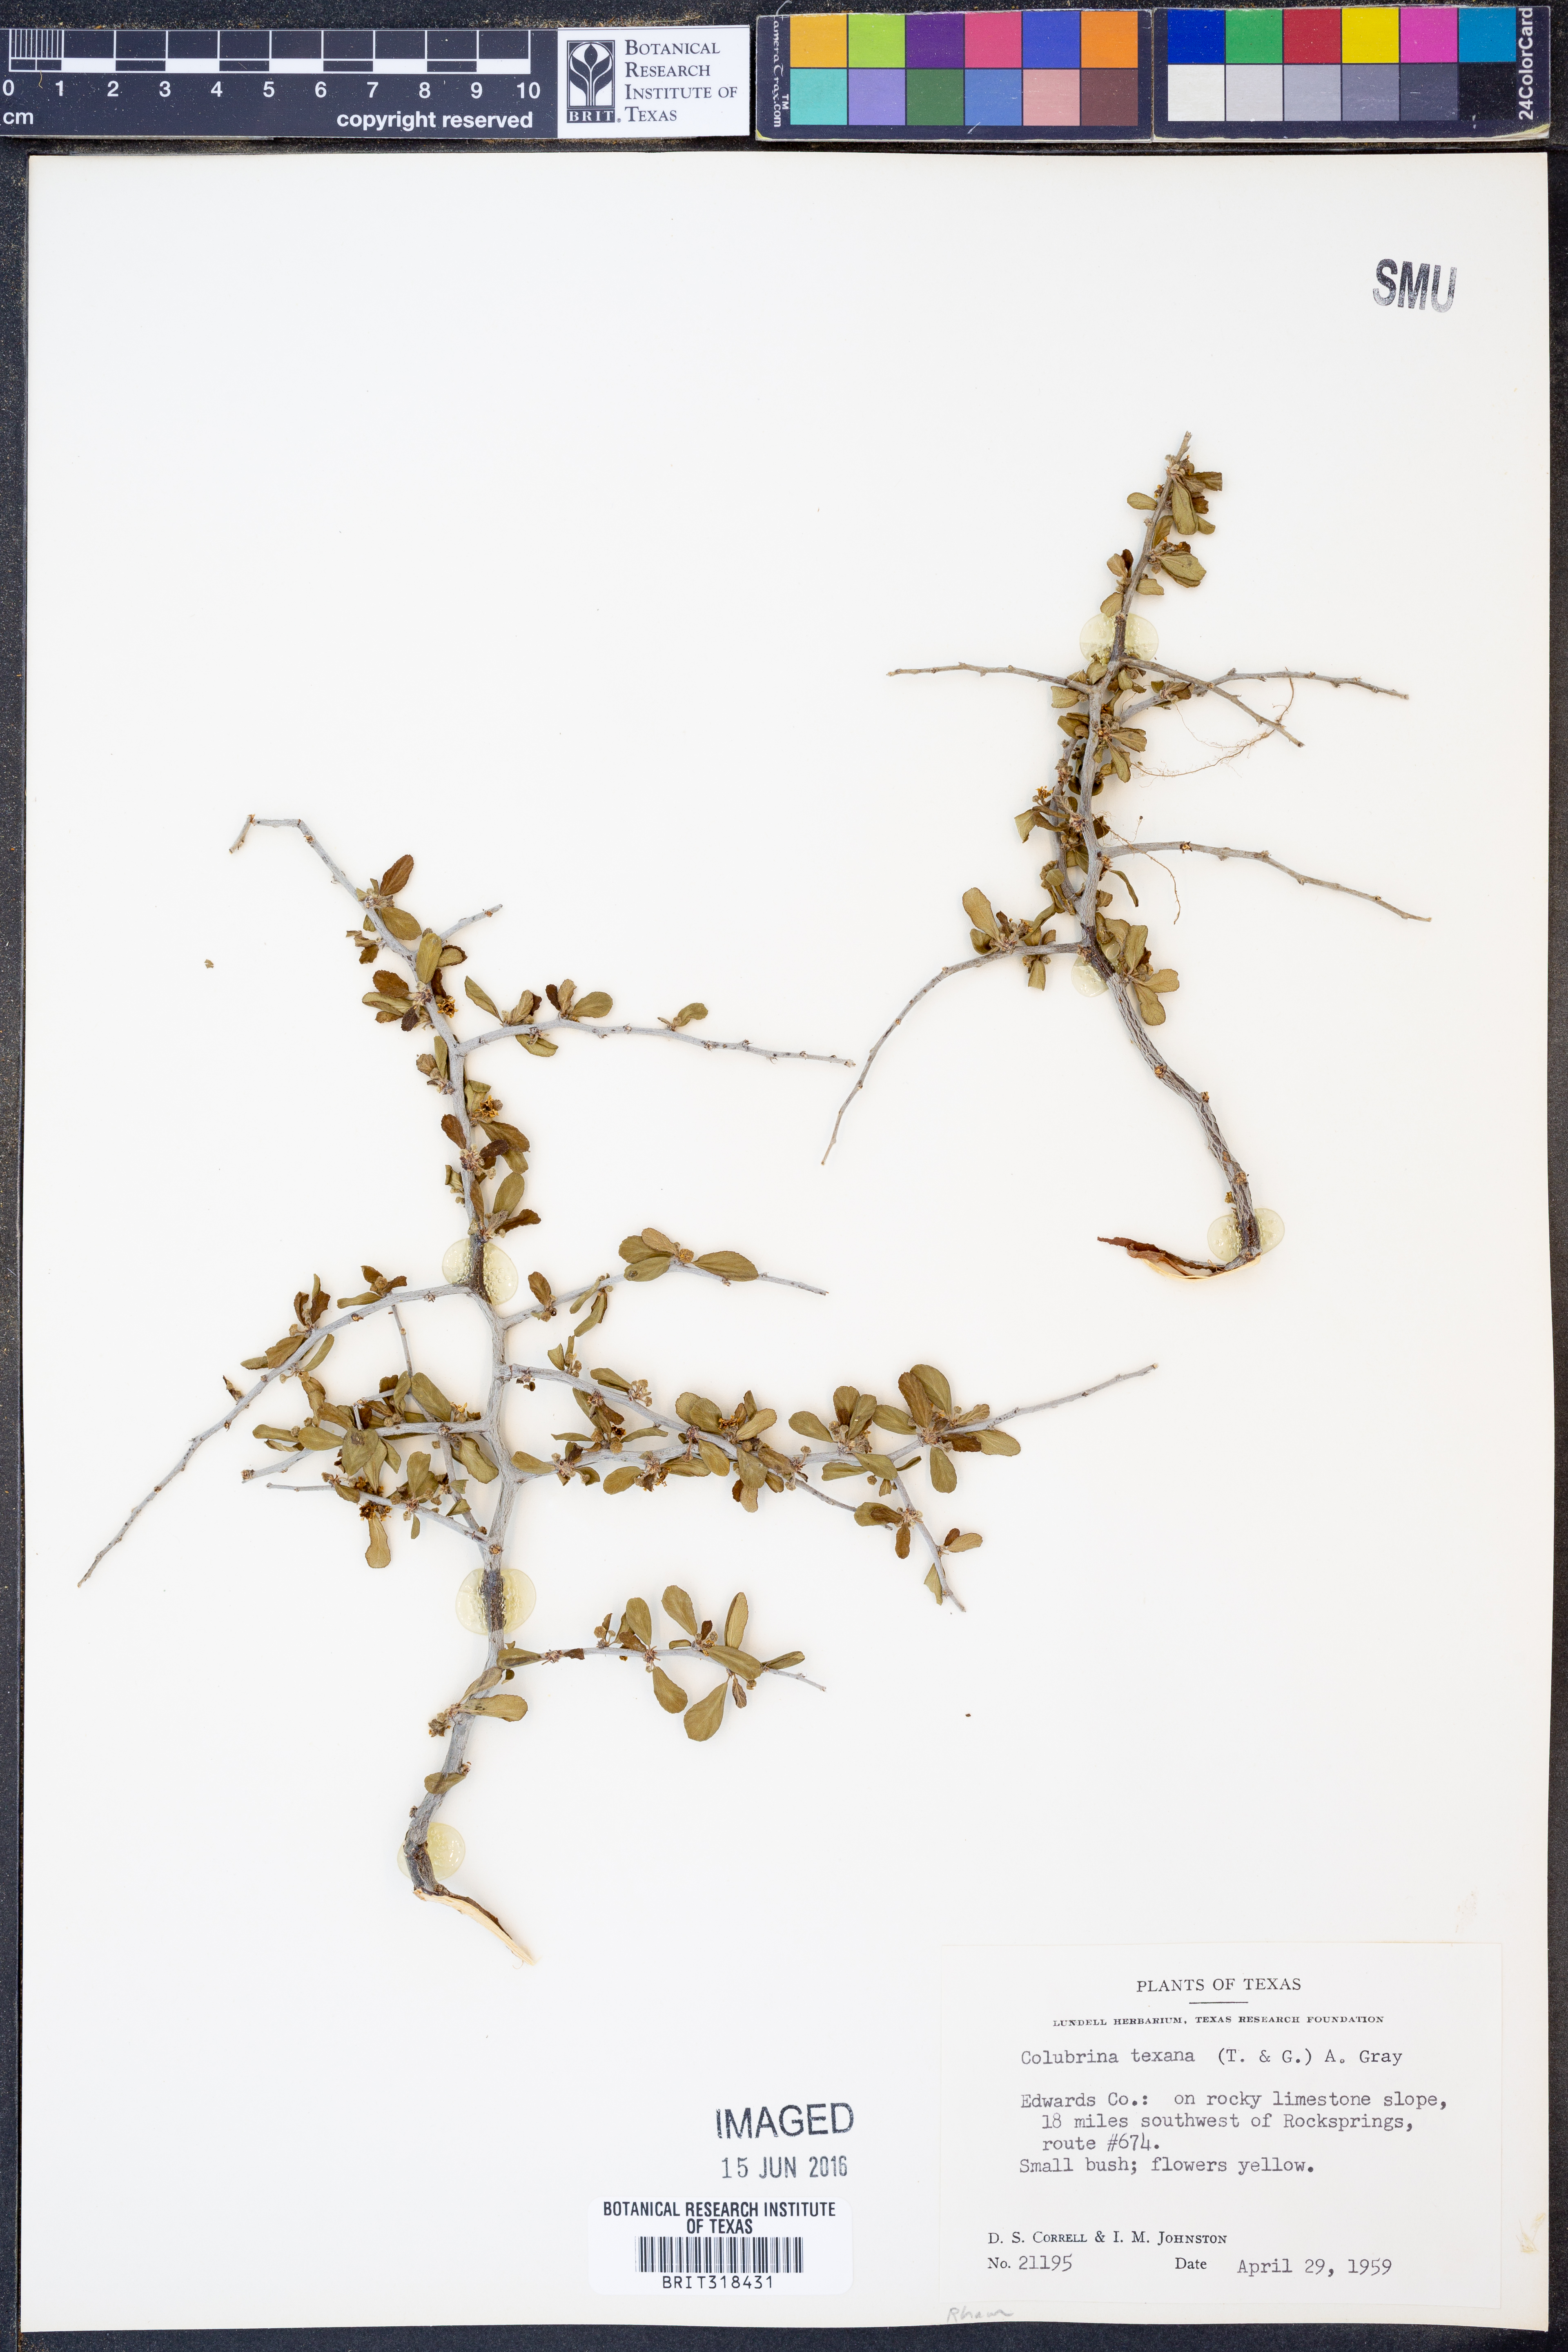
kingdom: Plantae
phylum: Tracheophyta
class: Magnoliopsida
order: Rosales
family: Rhamnaceae
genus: Colubrina
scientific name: Colubrina texensis
